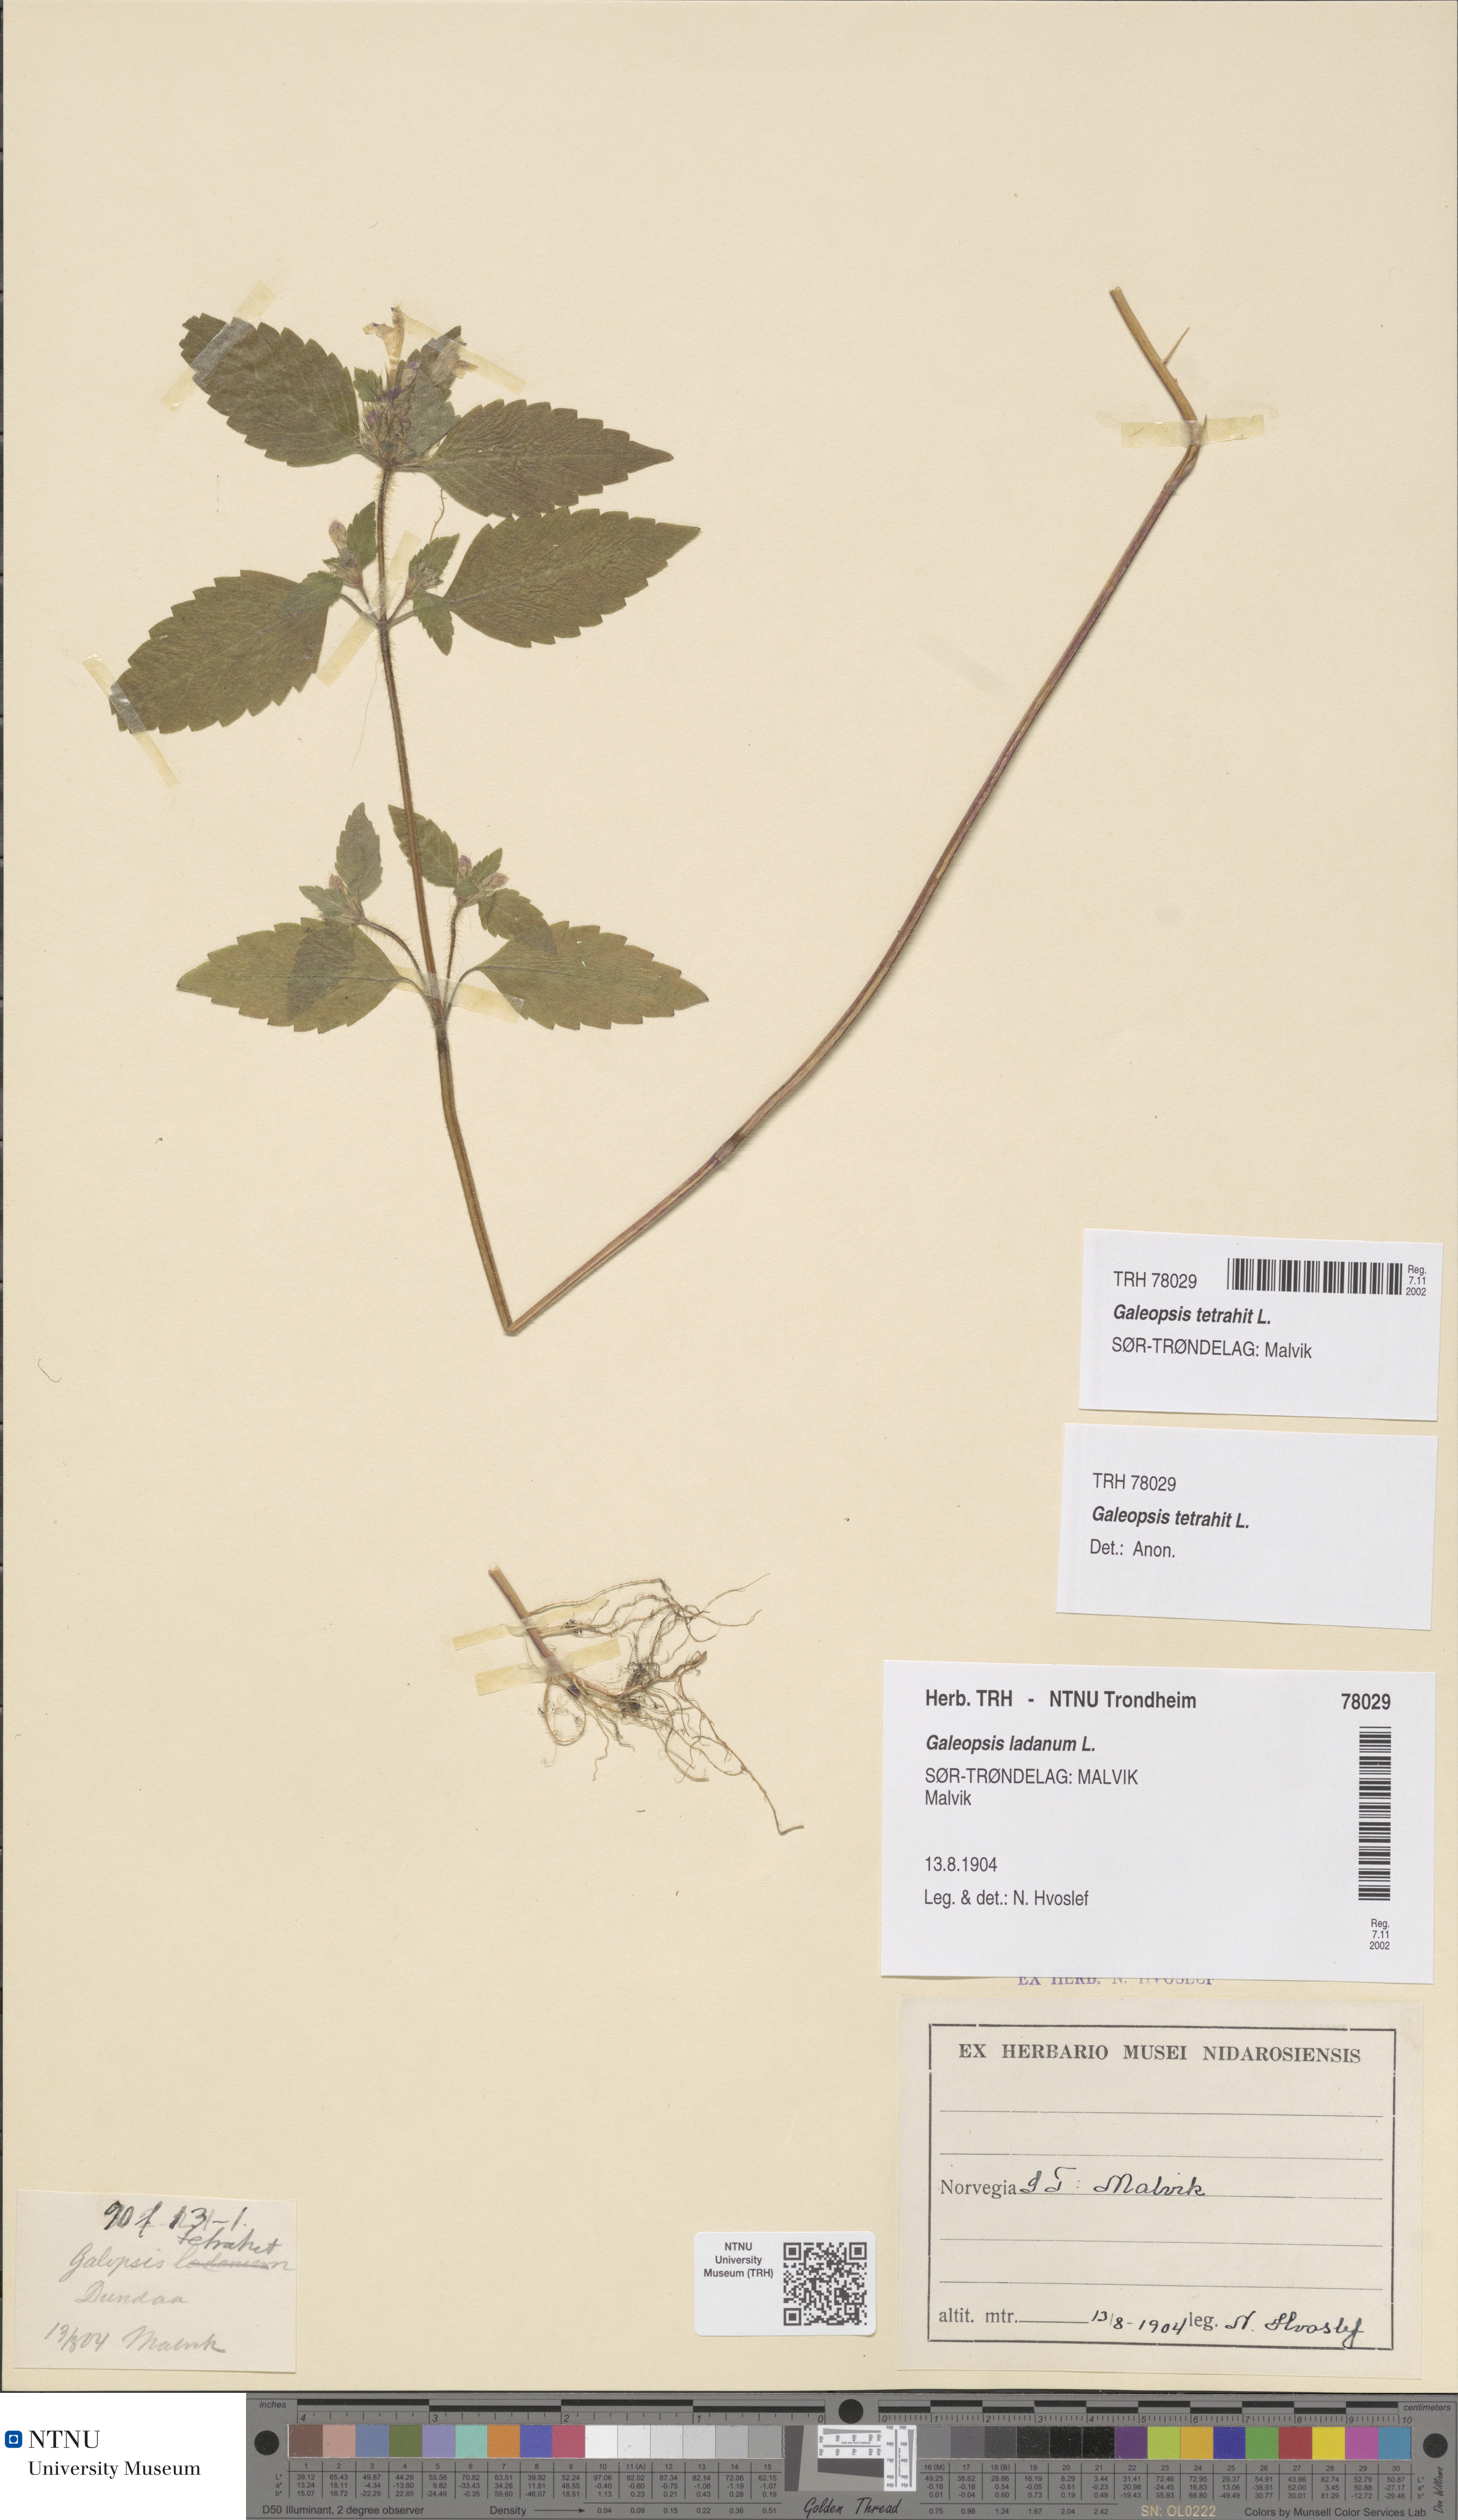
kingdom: Plantae
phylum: Tracheophyta
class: Magnoliopsida
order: Lamiales
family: Lamiaceae
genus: Galeopsis
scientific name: Galeopsis tetrahit
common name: Common hemp-nettle
